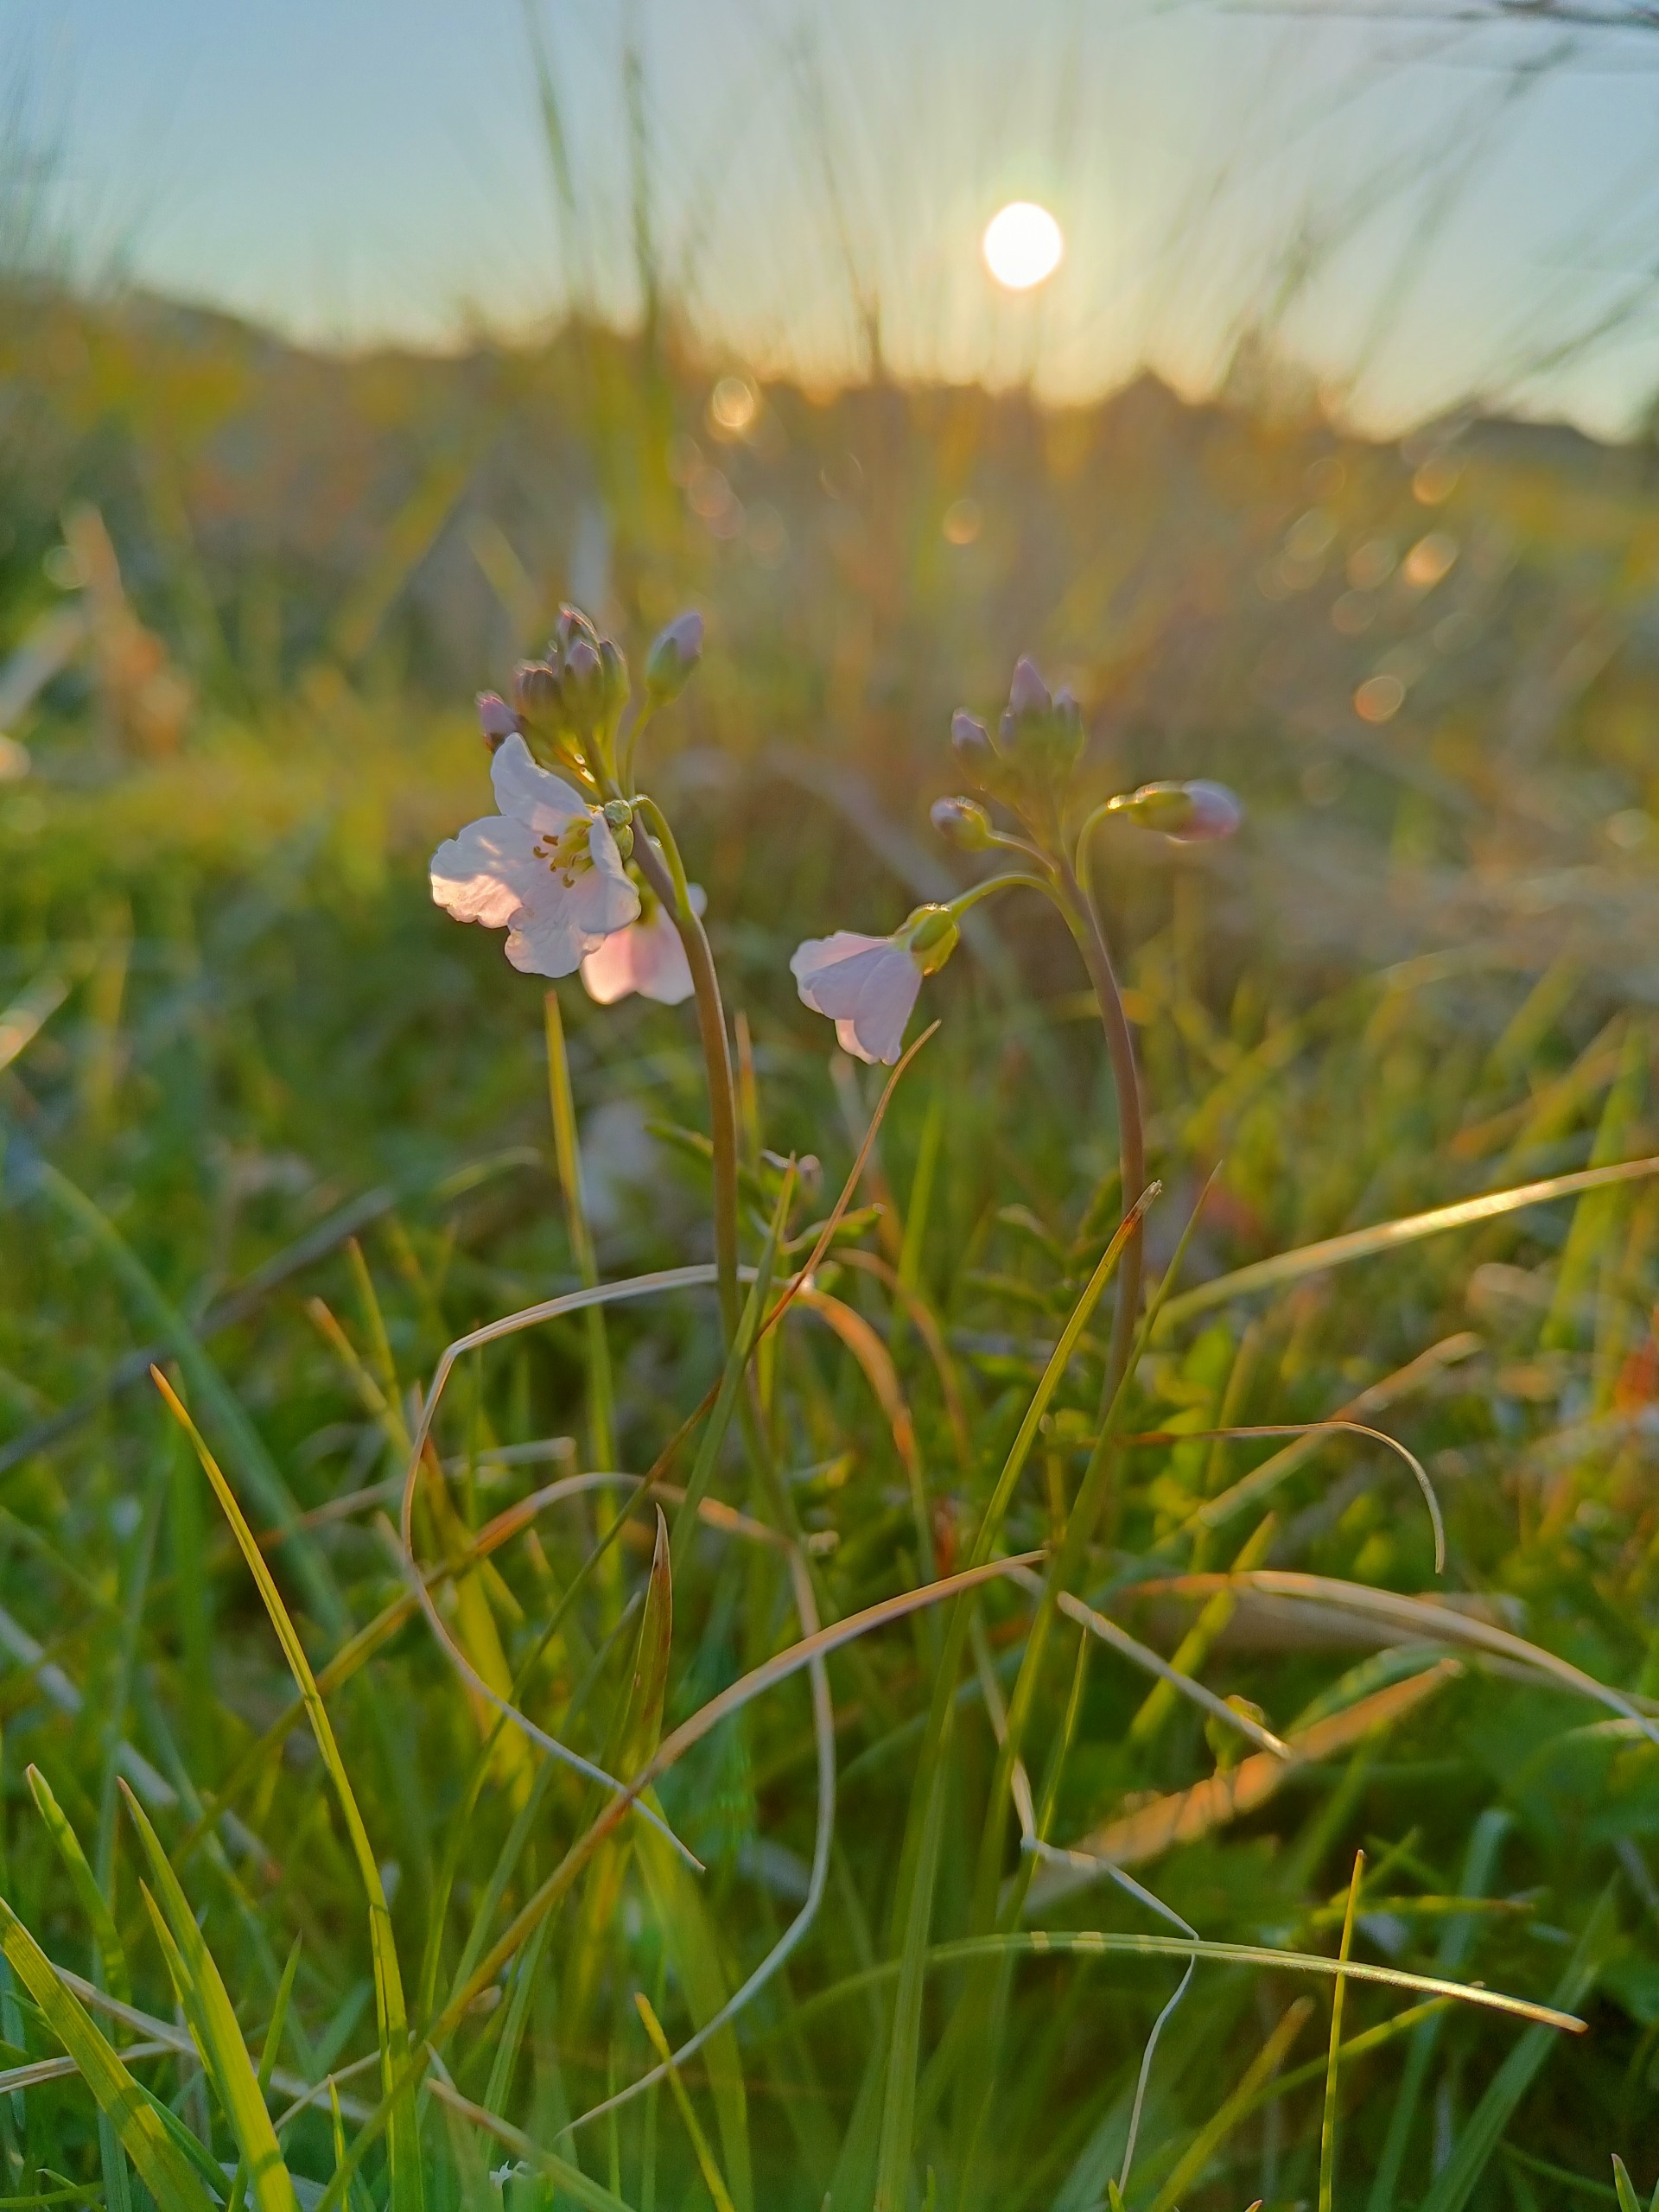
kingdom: Plantae
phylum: Tracheophyta
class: Magnoliopsida
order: Brassicales
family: Brassicaceae
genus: Cardamine
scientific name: Cardamine pratensis
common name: Engkarse
